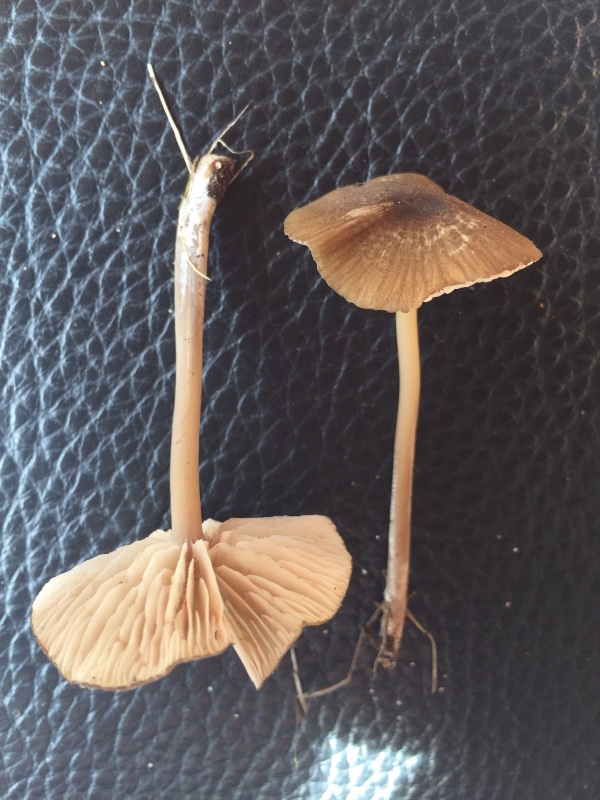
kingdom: Fungi
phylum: Basidiomycota
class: Agaricomycetes
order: Agaricales
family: Entolomataceae
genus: Entoloma
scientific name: Entoloma formosum
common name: brungul rødblad
